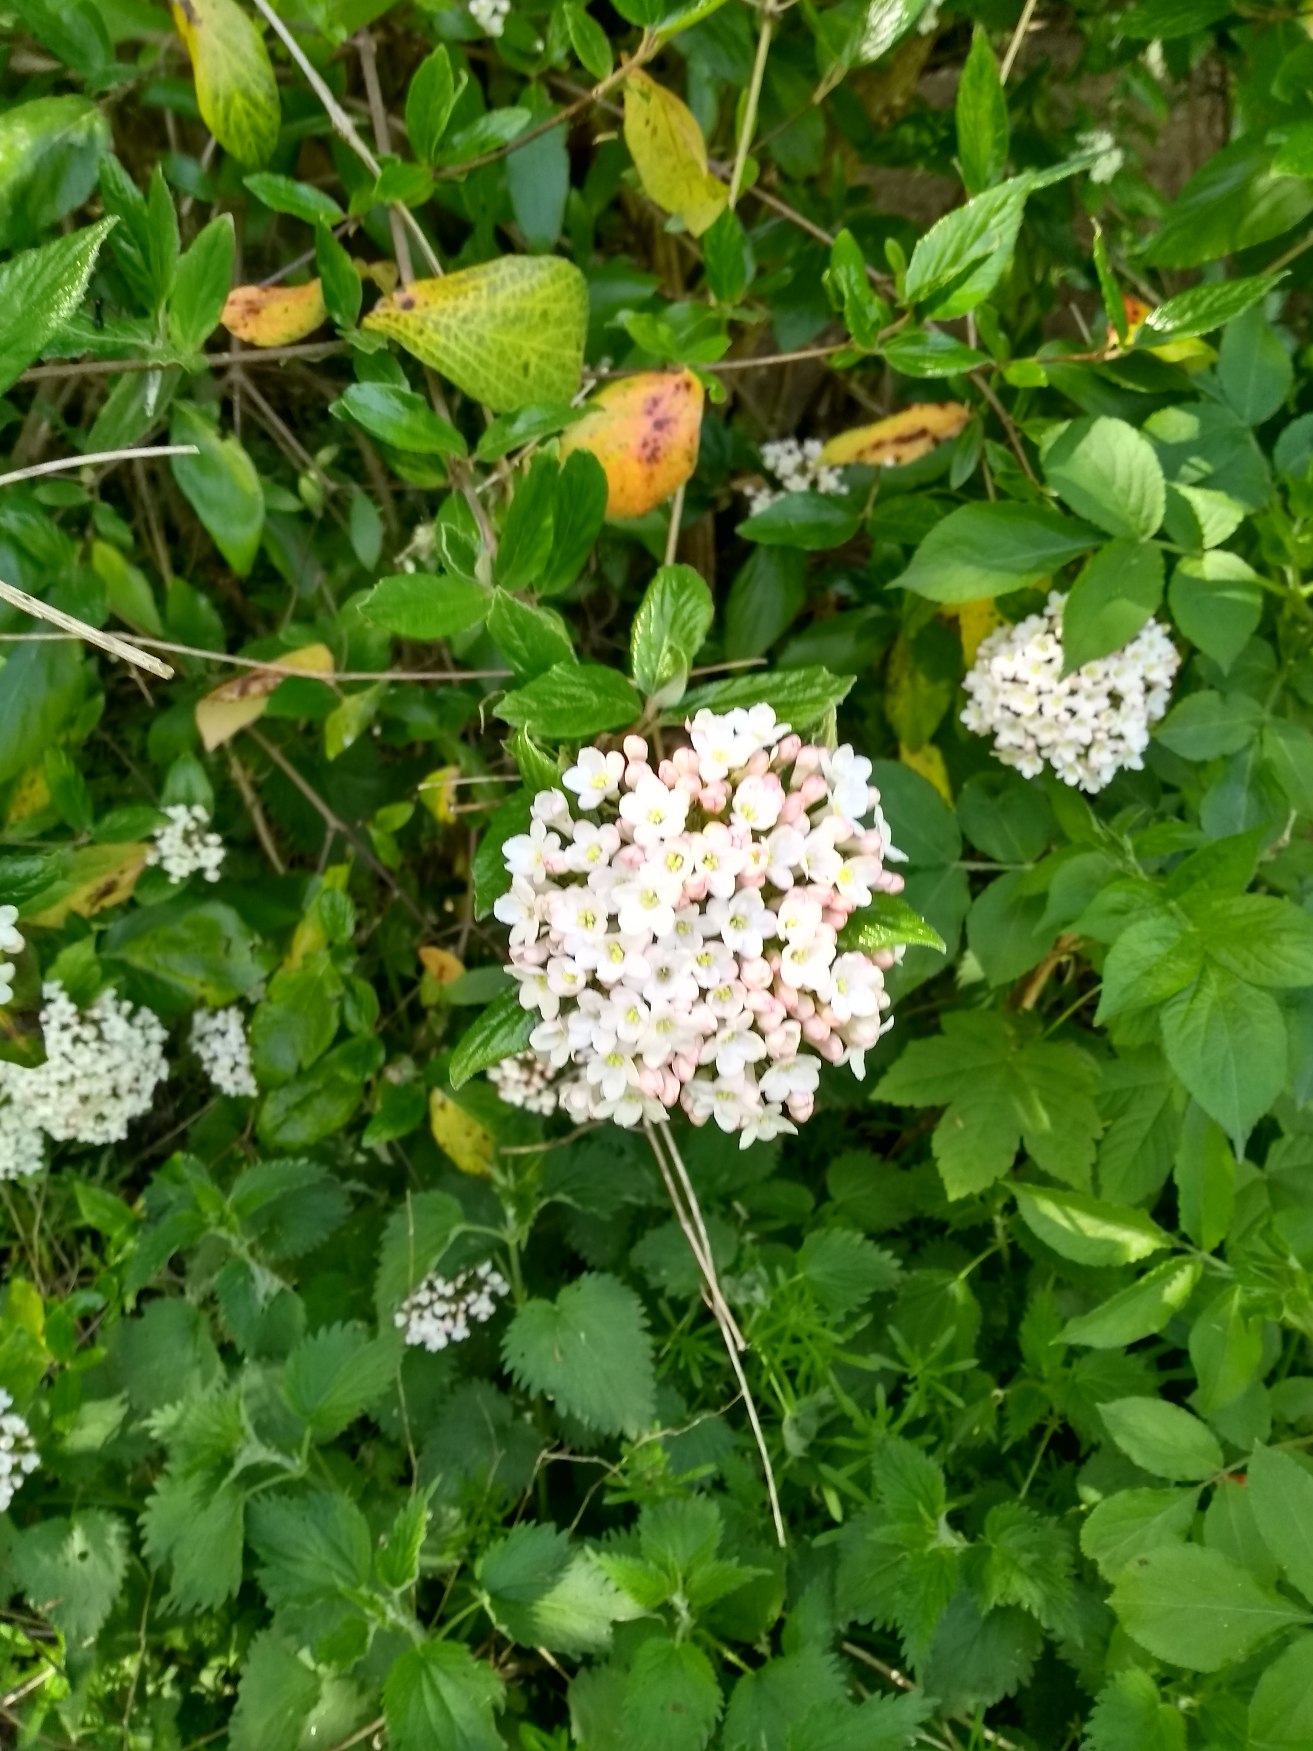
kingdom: Plantae
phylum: Tracheophyta
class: Magnoliopsida
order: Dipsacales
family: Viburnaceae
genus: Viburnum
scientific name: Viburnum
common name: Kvalkvedslægten
